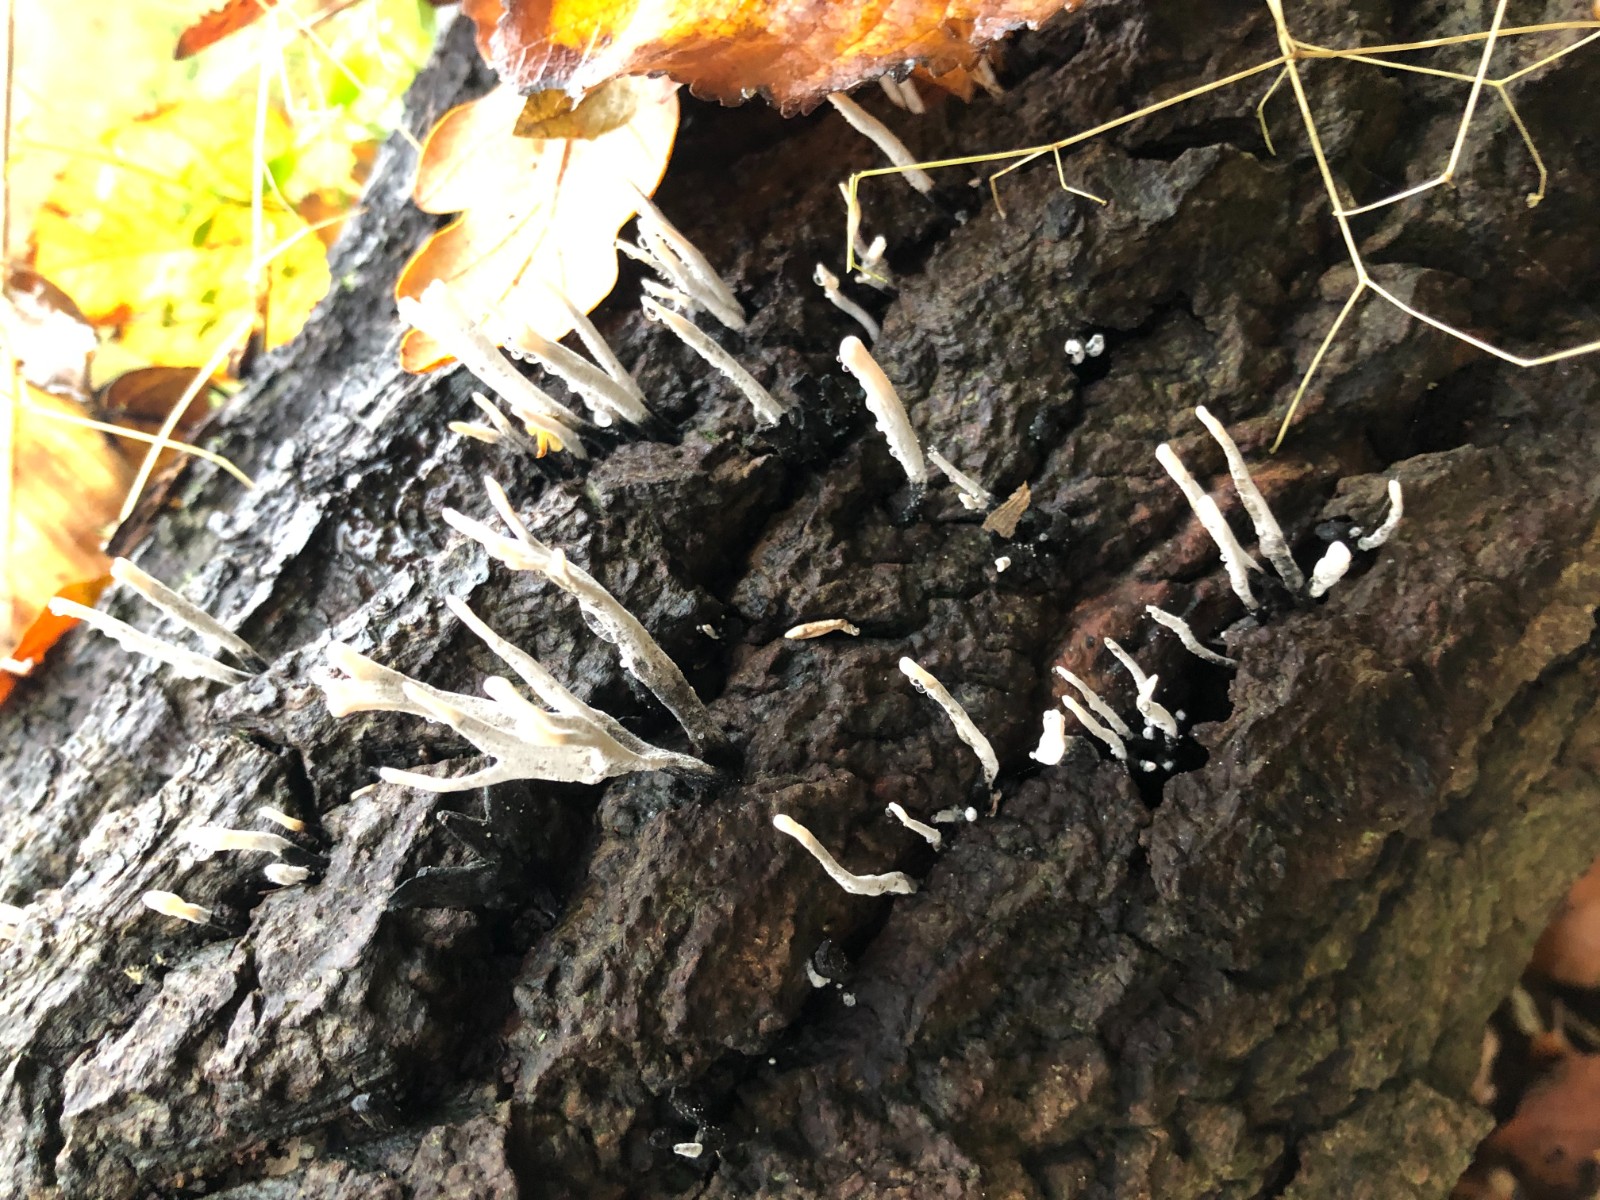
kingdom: Fungi
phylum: Ascomycota
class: Sordariomycetes
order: Xylariales
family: Xylariaceae
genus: Xylaria
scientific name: Xylaria hypoxylon
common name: grenet stødsvamp
